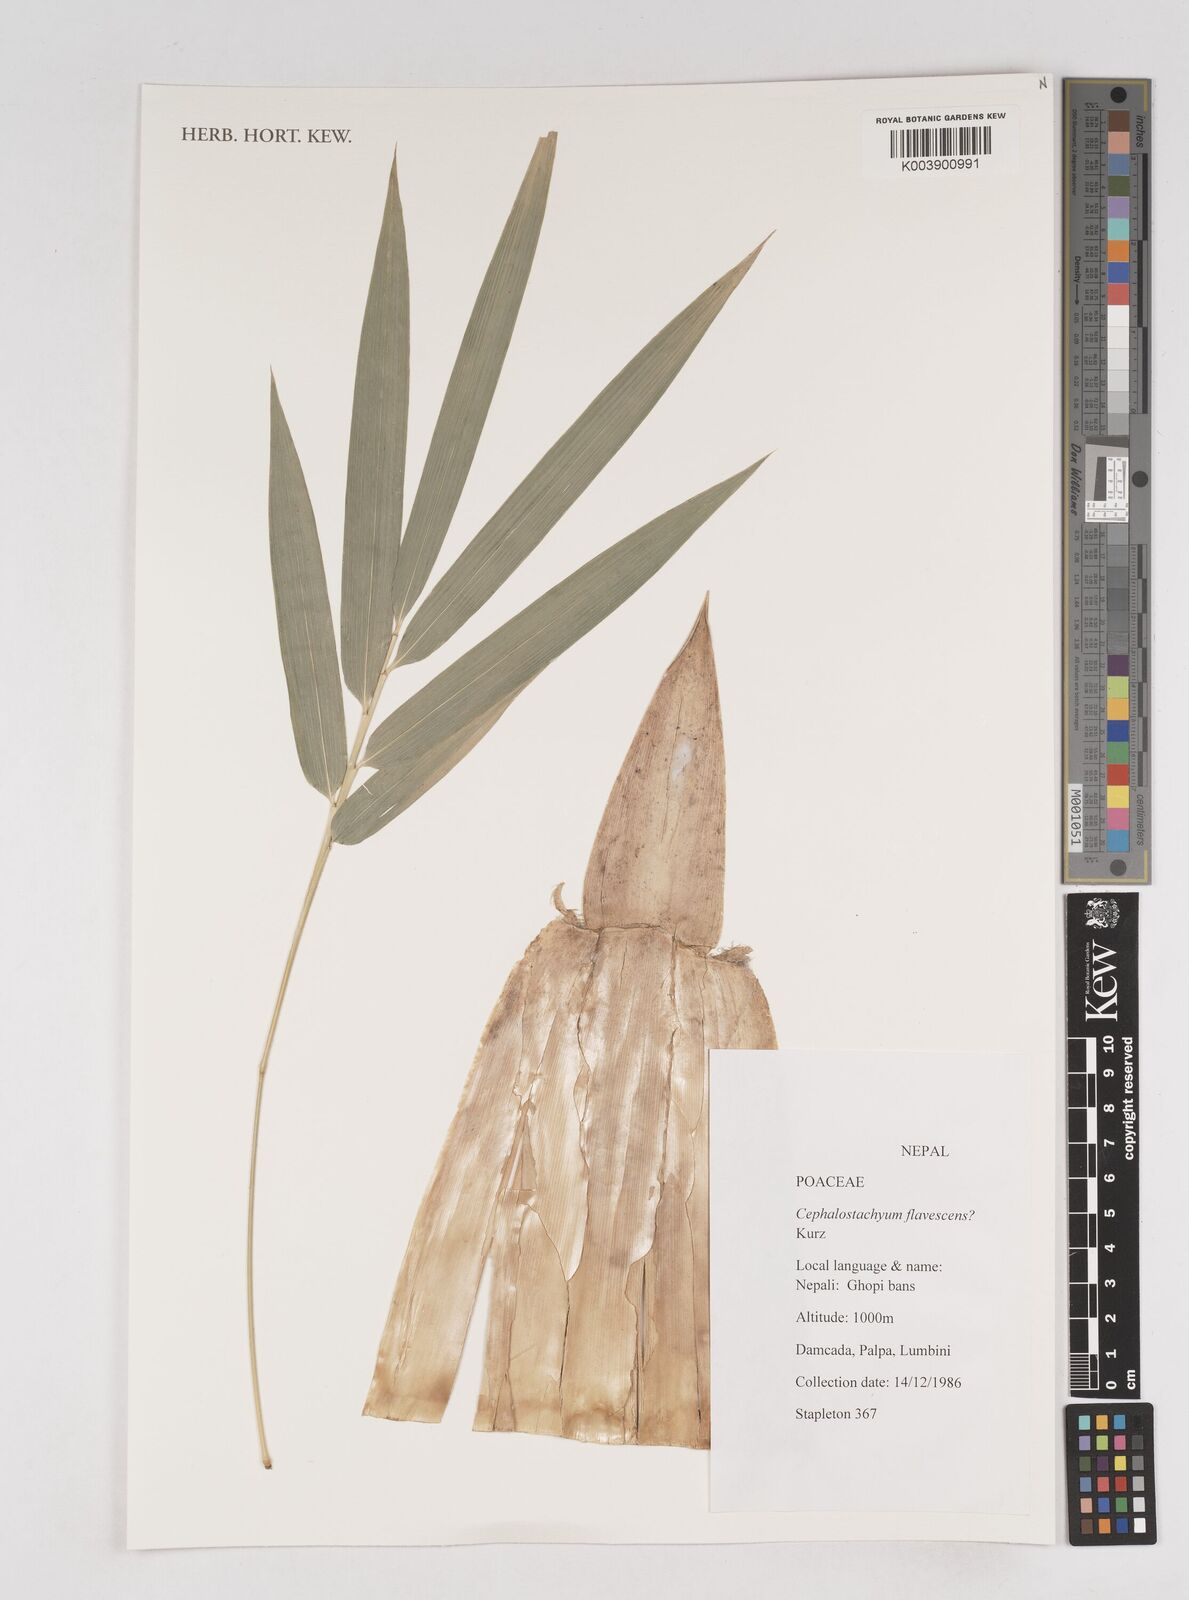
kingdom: Plantae
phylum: Tracheophyta
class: Liliopsida
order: Poales
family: Poaceae
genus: Cephalostachyum
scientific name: Cephalostachyum flavescens
